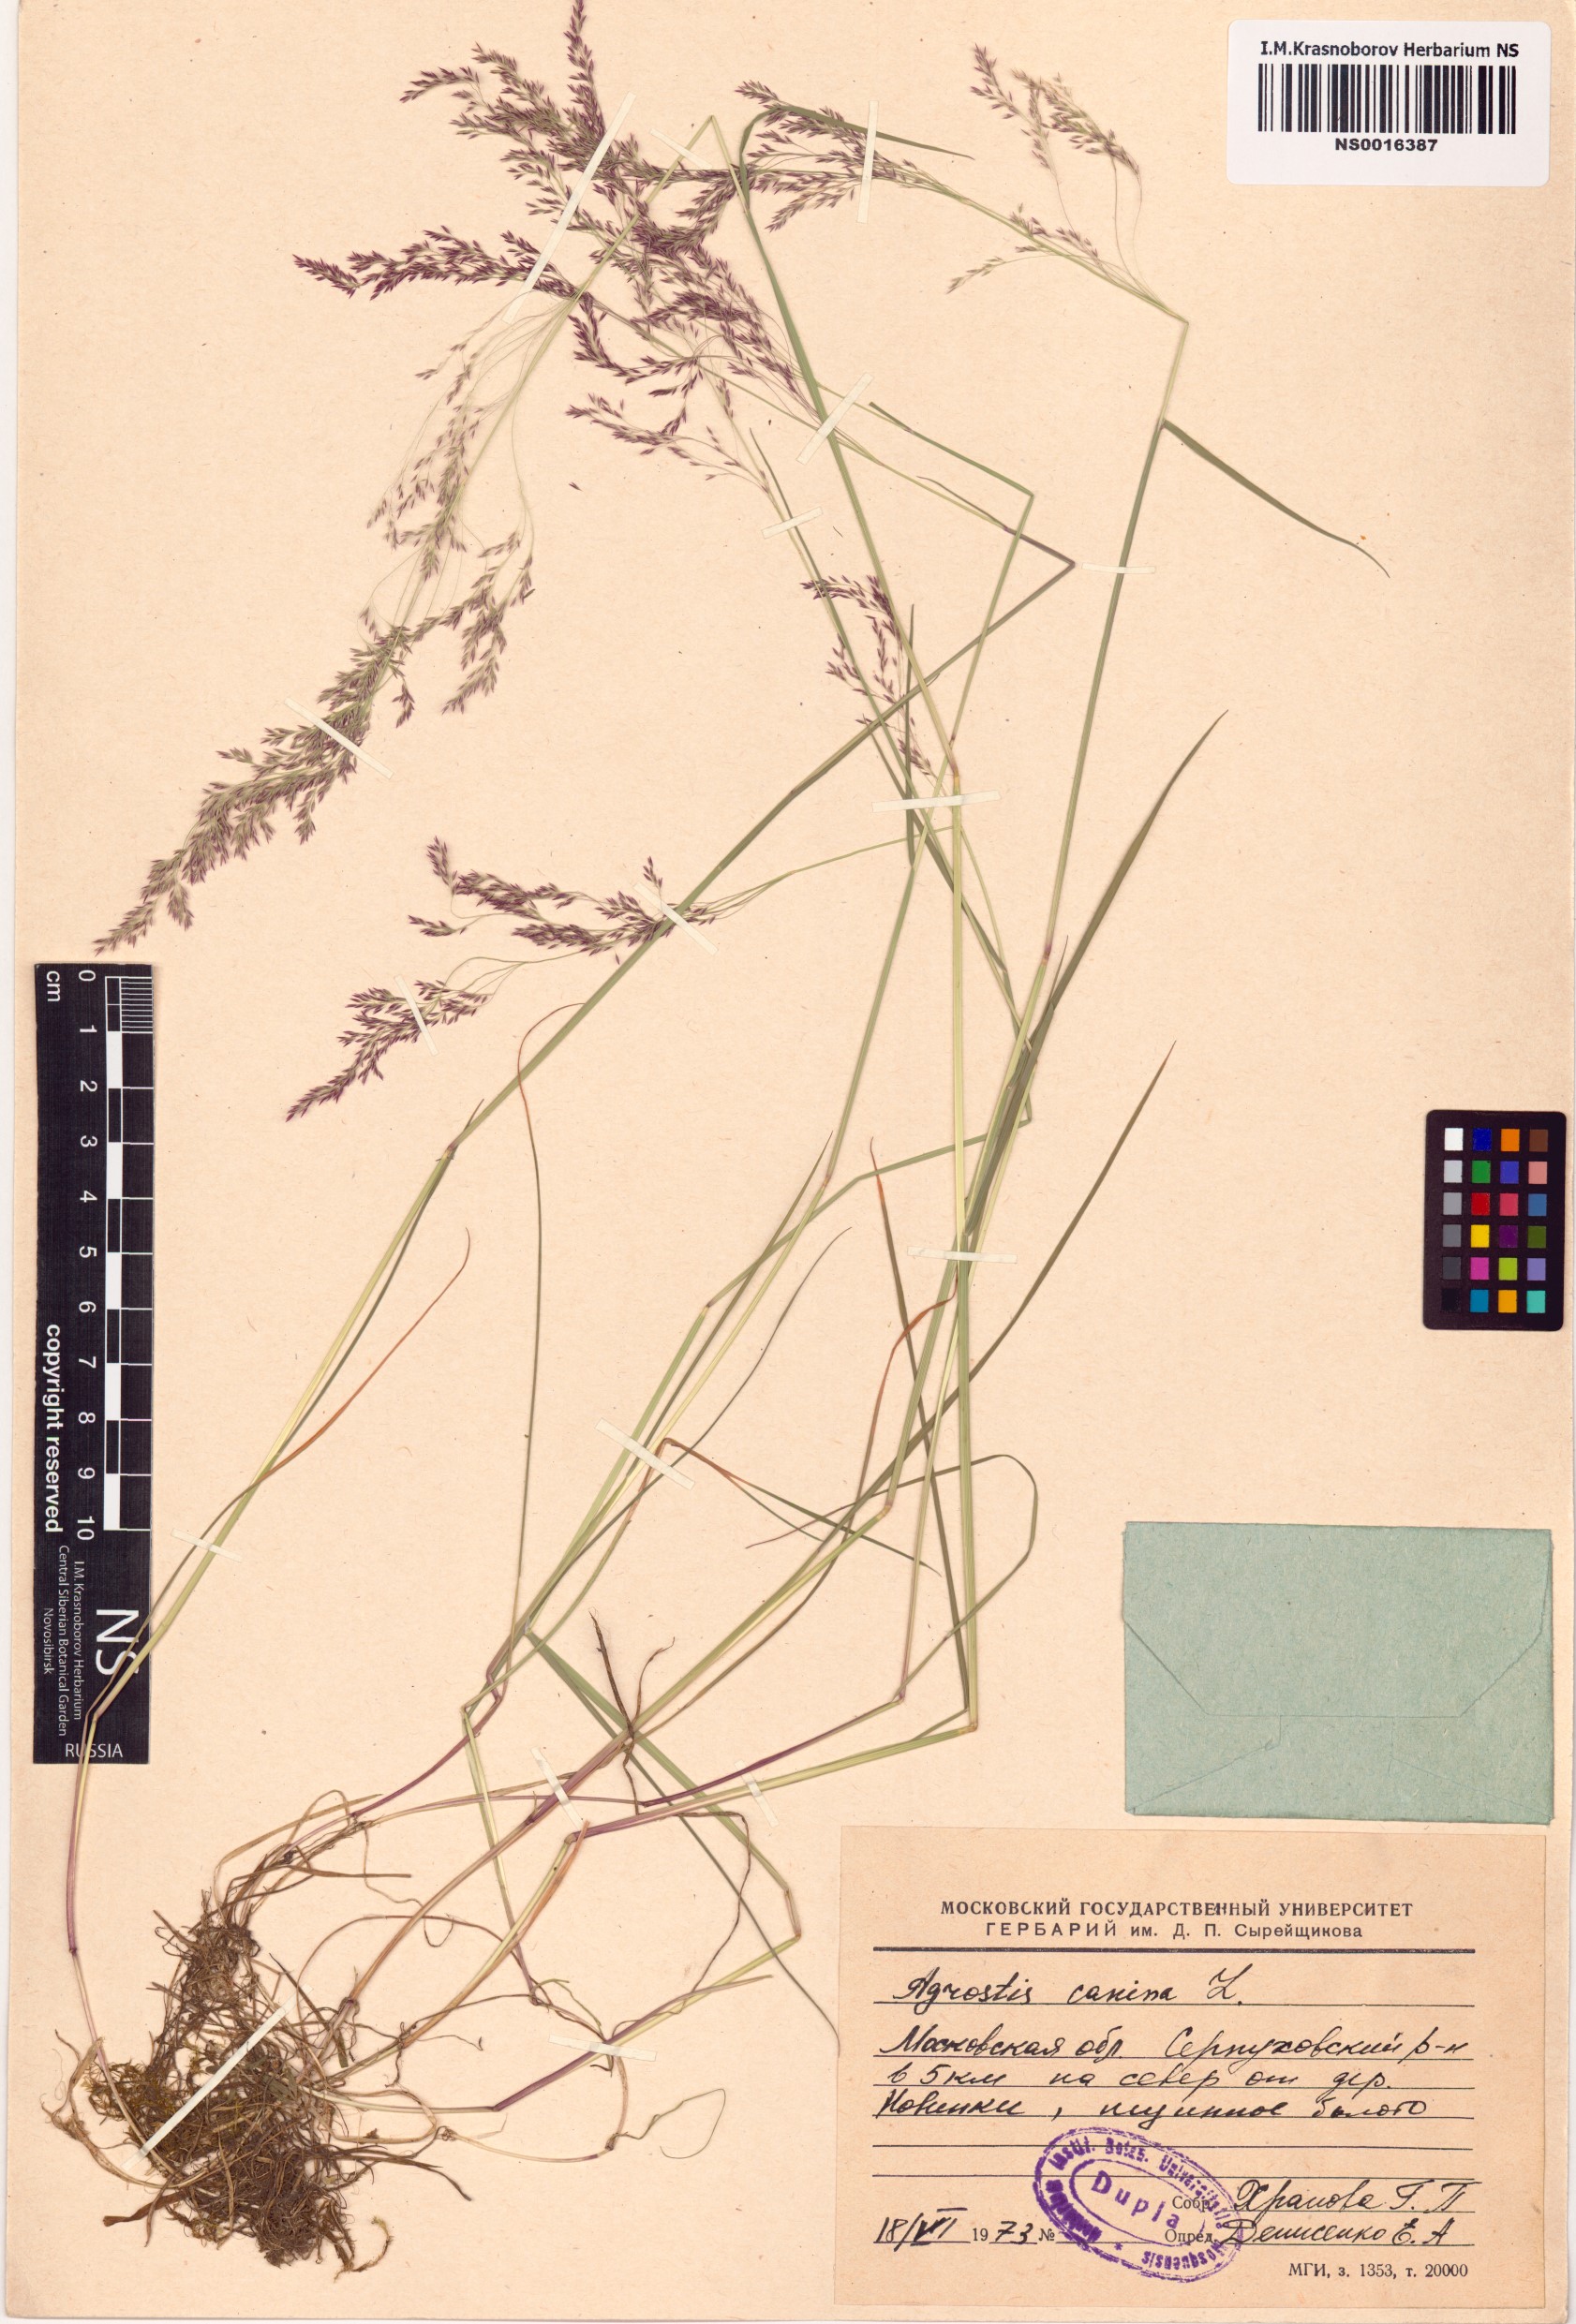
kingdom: Plantae
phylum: Tracheophyta
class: Liliopsida
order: Poales
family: Poaceae
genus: Agrostis
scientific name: Agrostis canina
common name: Velvet bent
